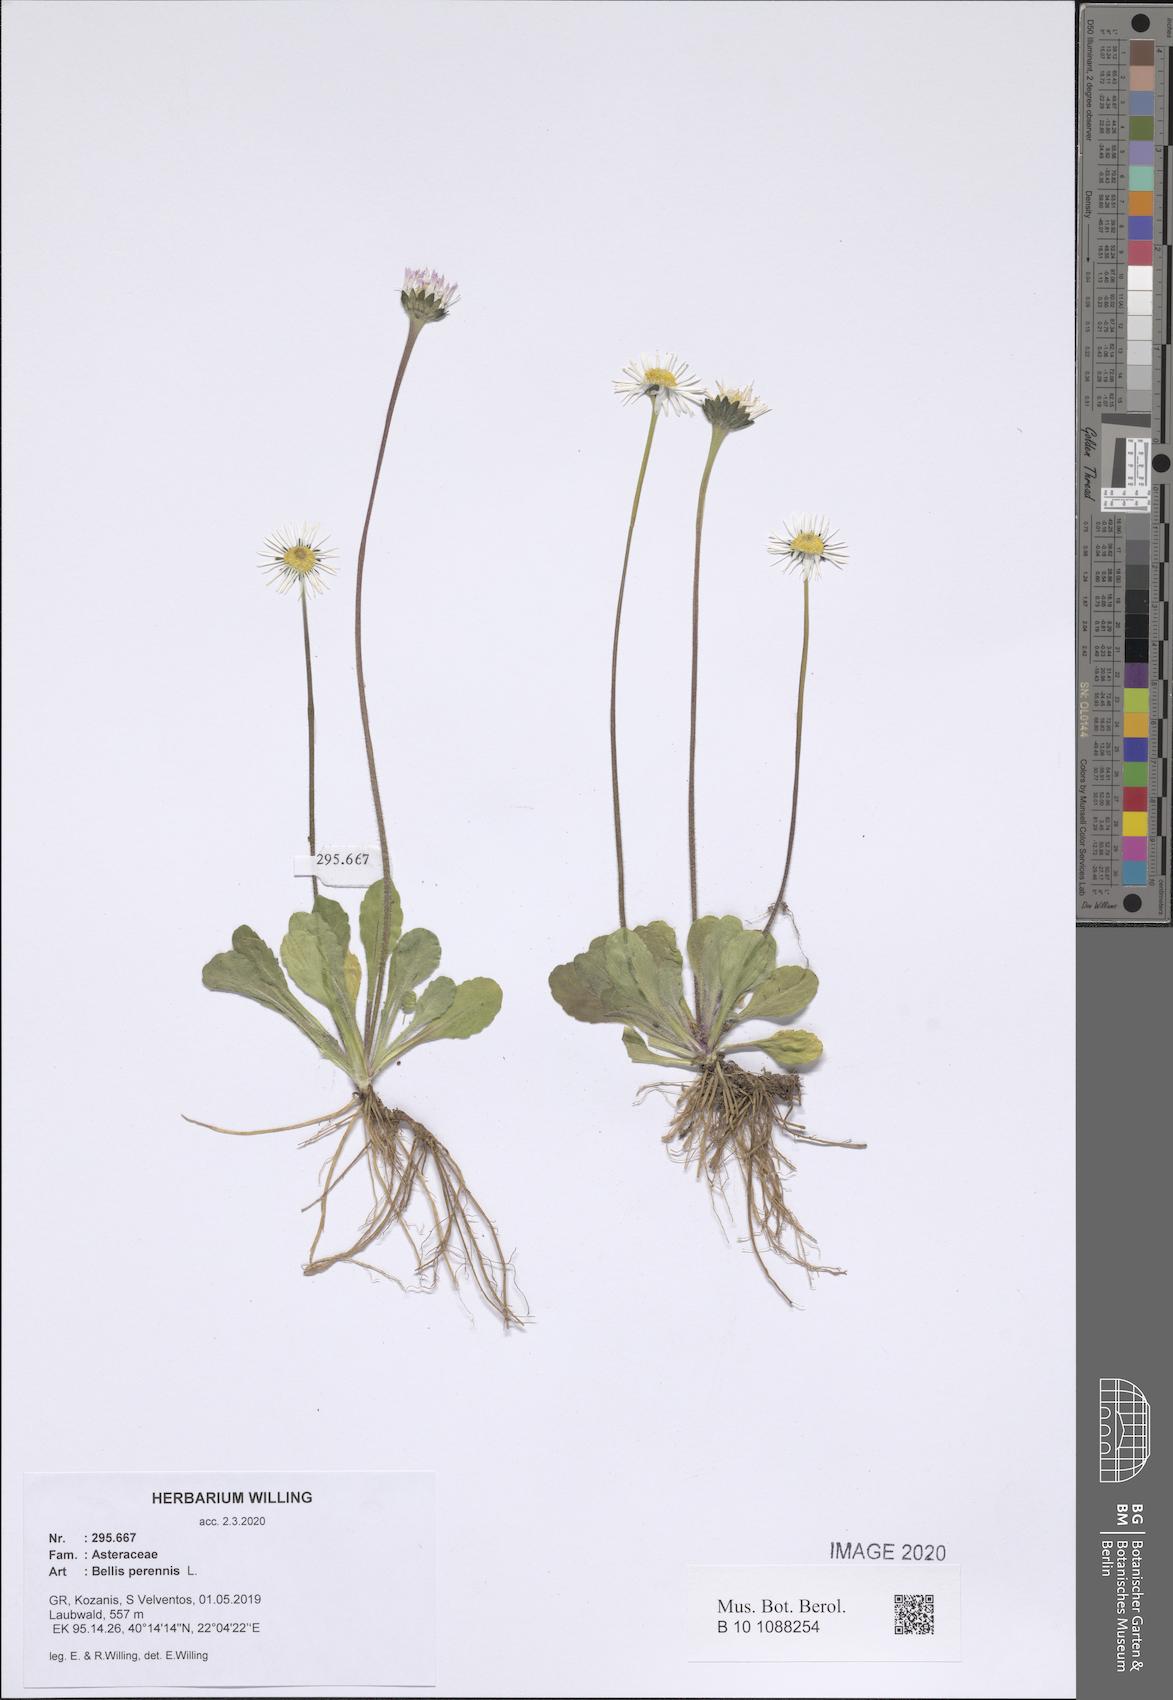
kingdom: Plantae
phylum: Tracheophyta
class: Magnoliopsida
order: Asterales
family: Asteraceae
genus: Bellis
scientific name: Bellis perennis
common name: Lawndaisy
